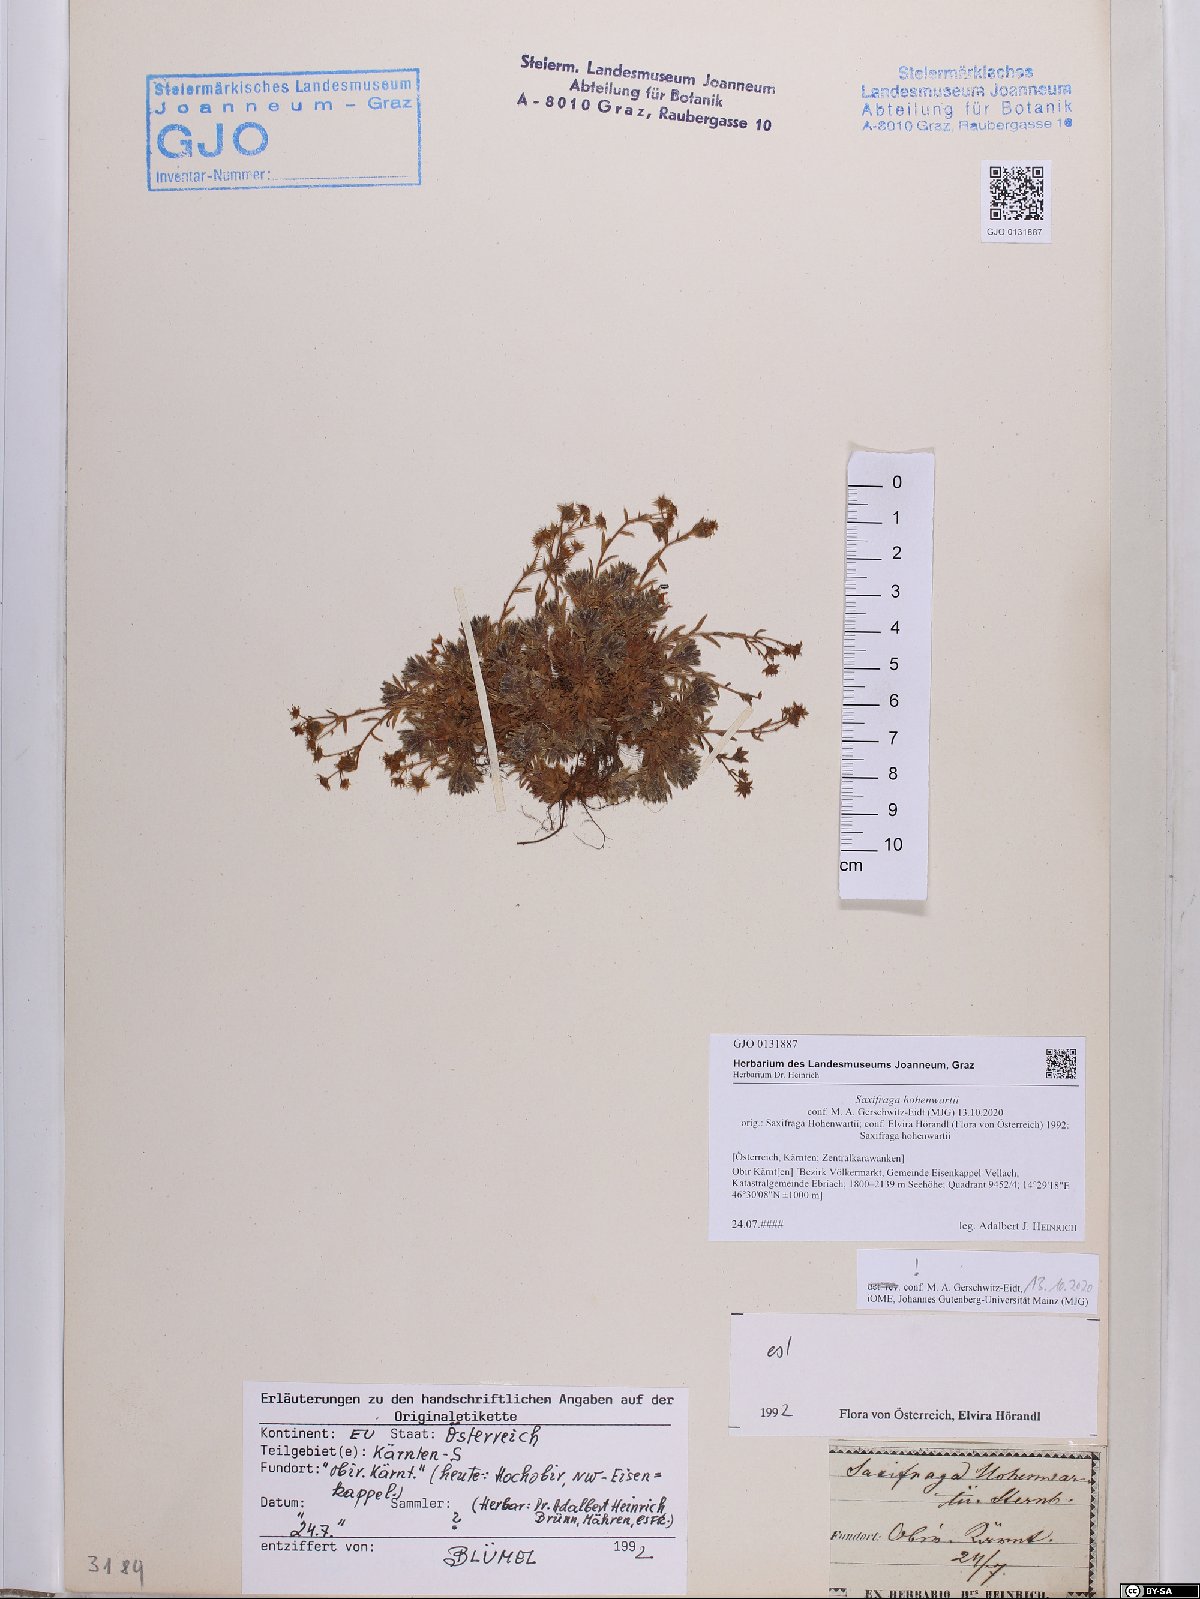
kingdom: Plantae
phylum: Tracheophyta
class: Magnoliopsida
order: Saxifragales
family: Saxifragaceae
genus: Saxifraga
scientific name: Saxifraga hohenwartii
